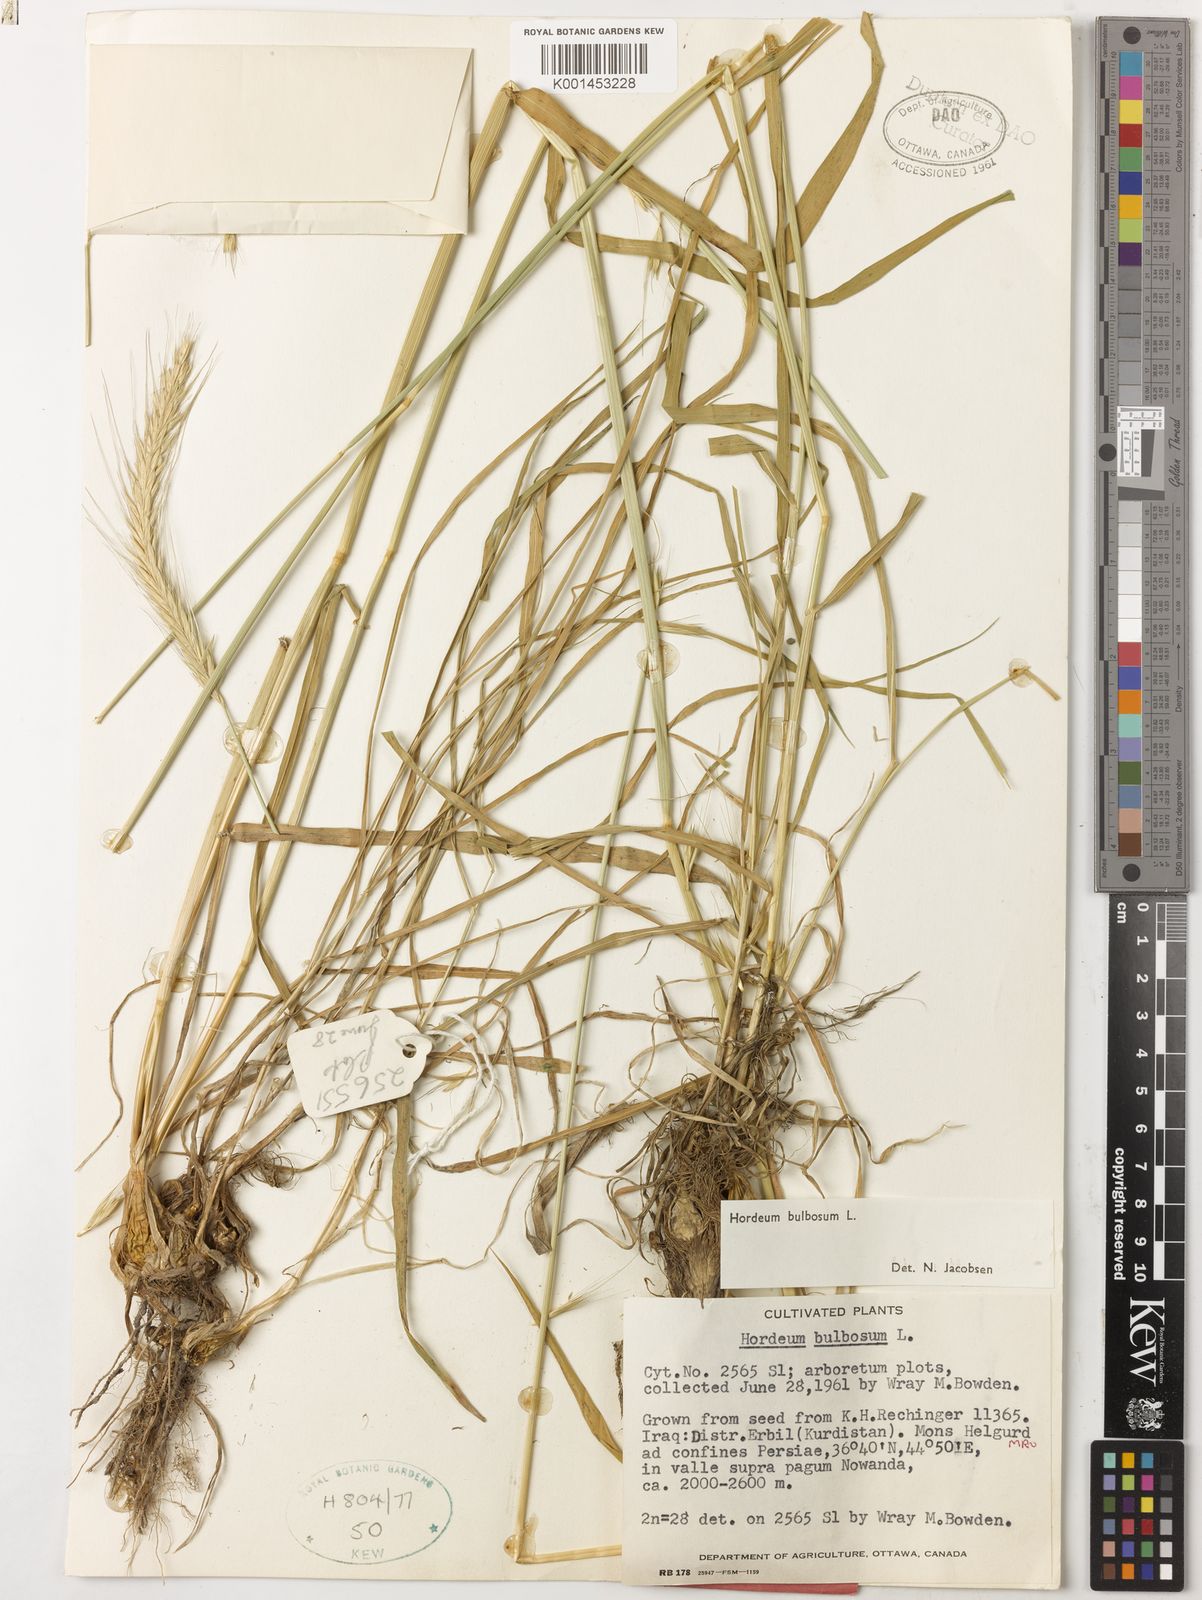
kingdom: Plantae
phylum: Tracheophyta
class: Liliopsida
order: Poales
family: Poaceae
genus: Hordeum
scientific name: Hordeum bulbosum
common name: Bulbous barley
